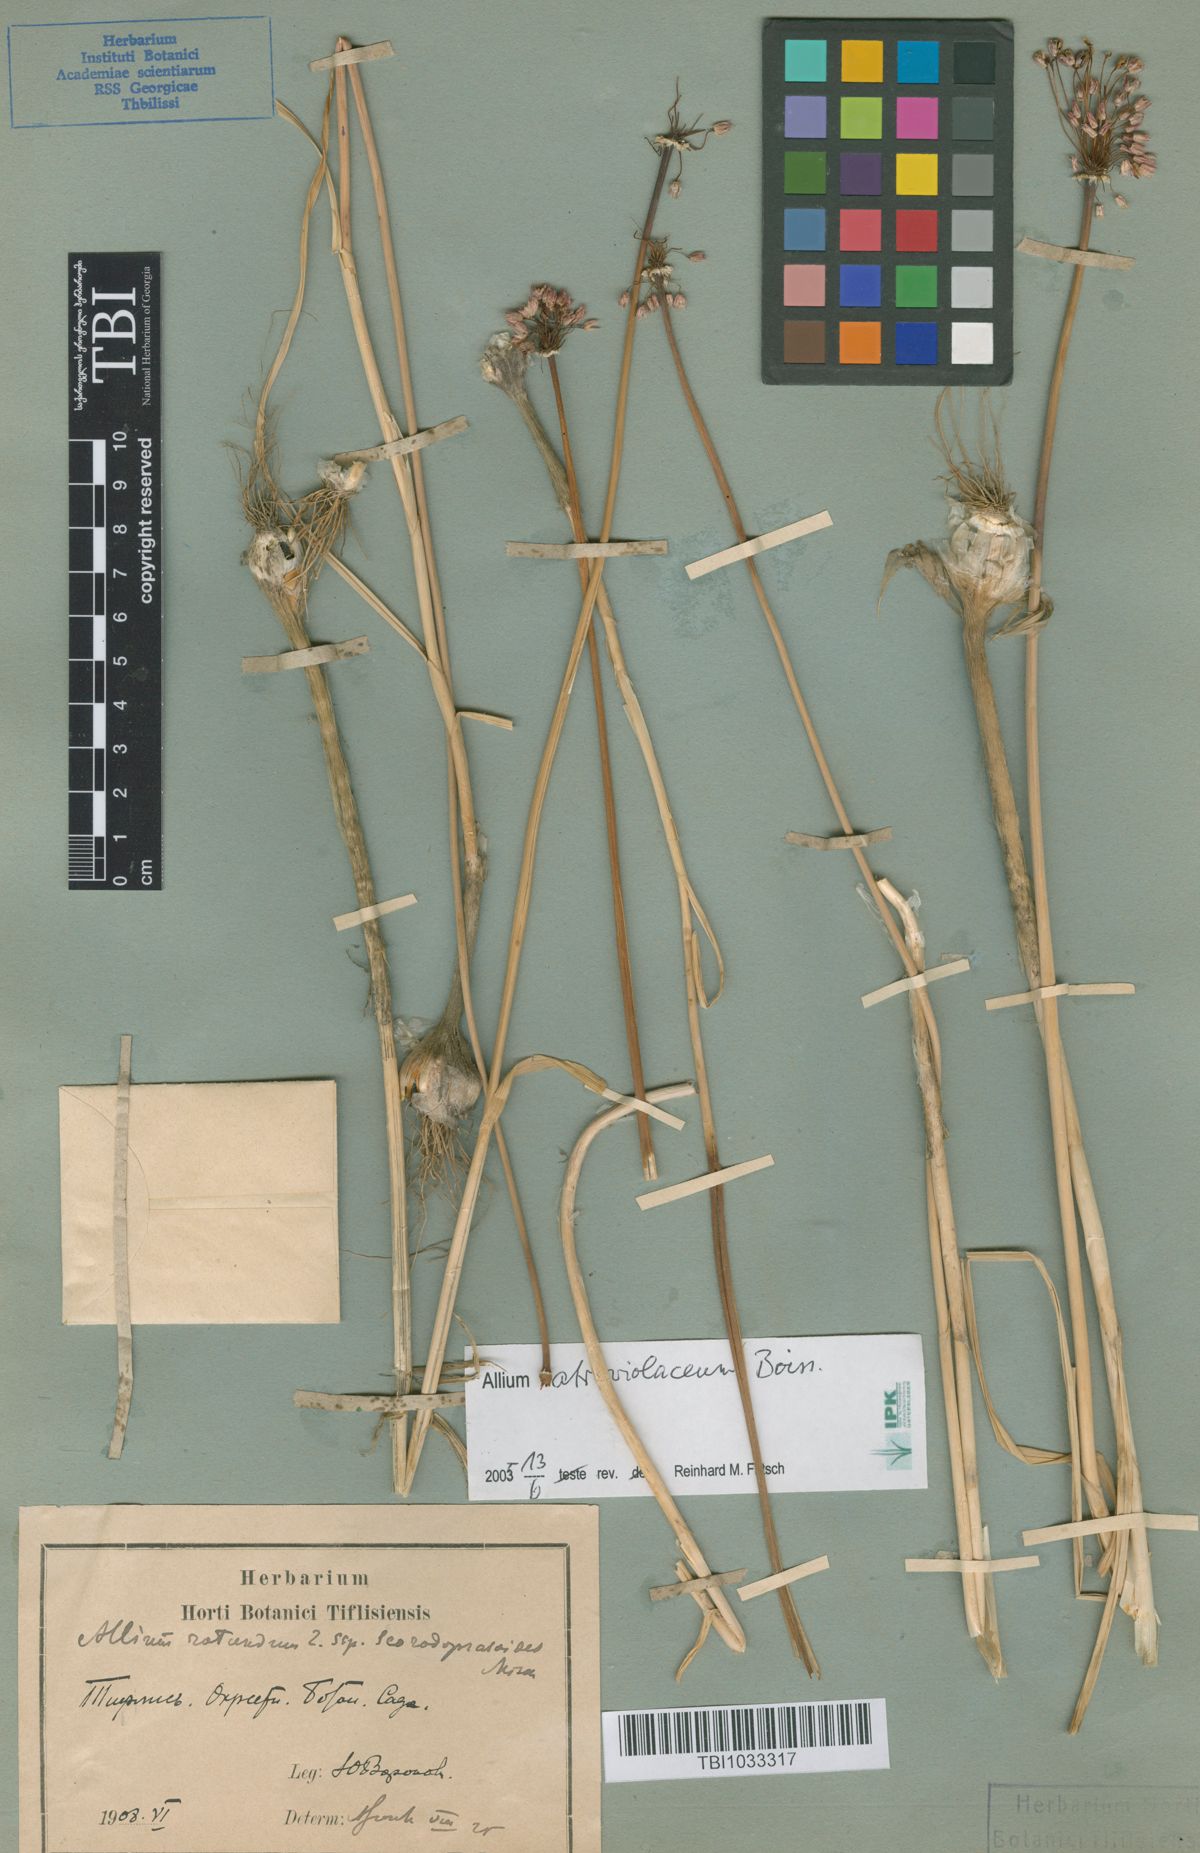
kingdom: Plantae
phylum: Tracheophyta
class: Liliopsida
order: Asparagales
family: Amaryllidaceae
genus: Allium
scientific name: Allium fuscoviolaceum
